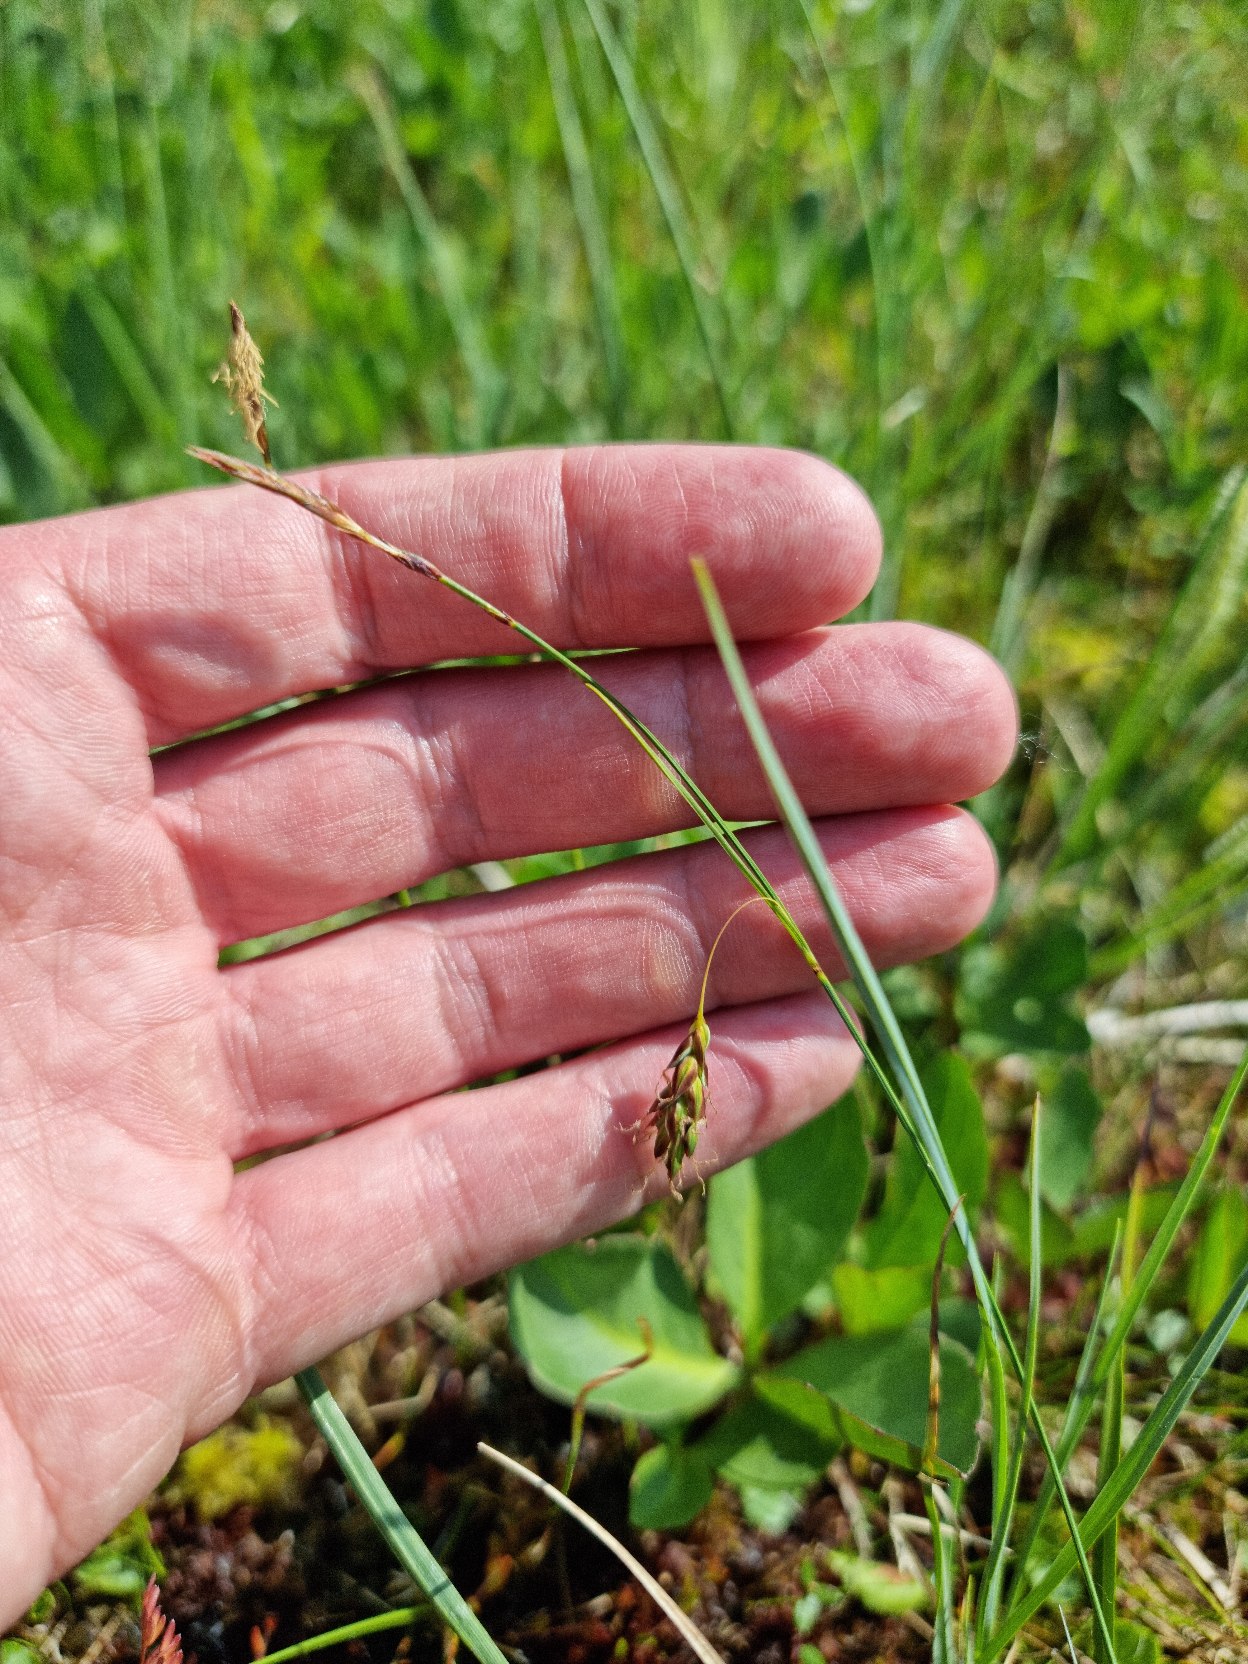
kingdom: Plantae
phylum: Tracheophyta
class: Liliopsida
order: Poales
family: Cyperaceae
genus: Carex
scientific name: Carex limosa
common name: Dynd-star
